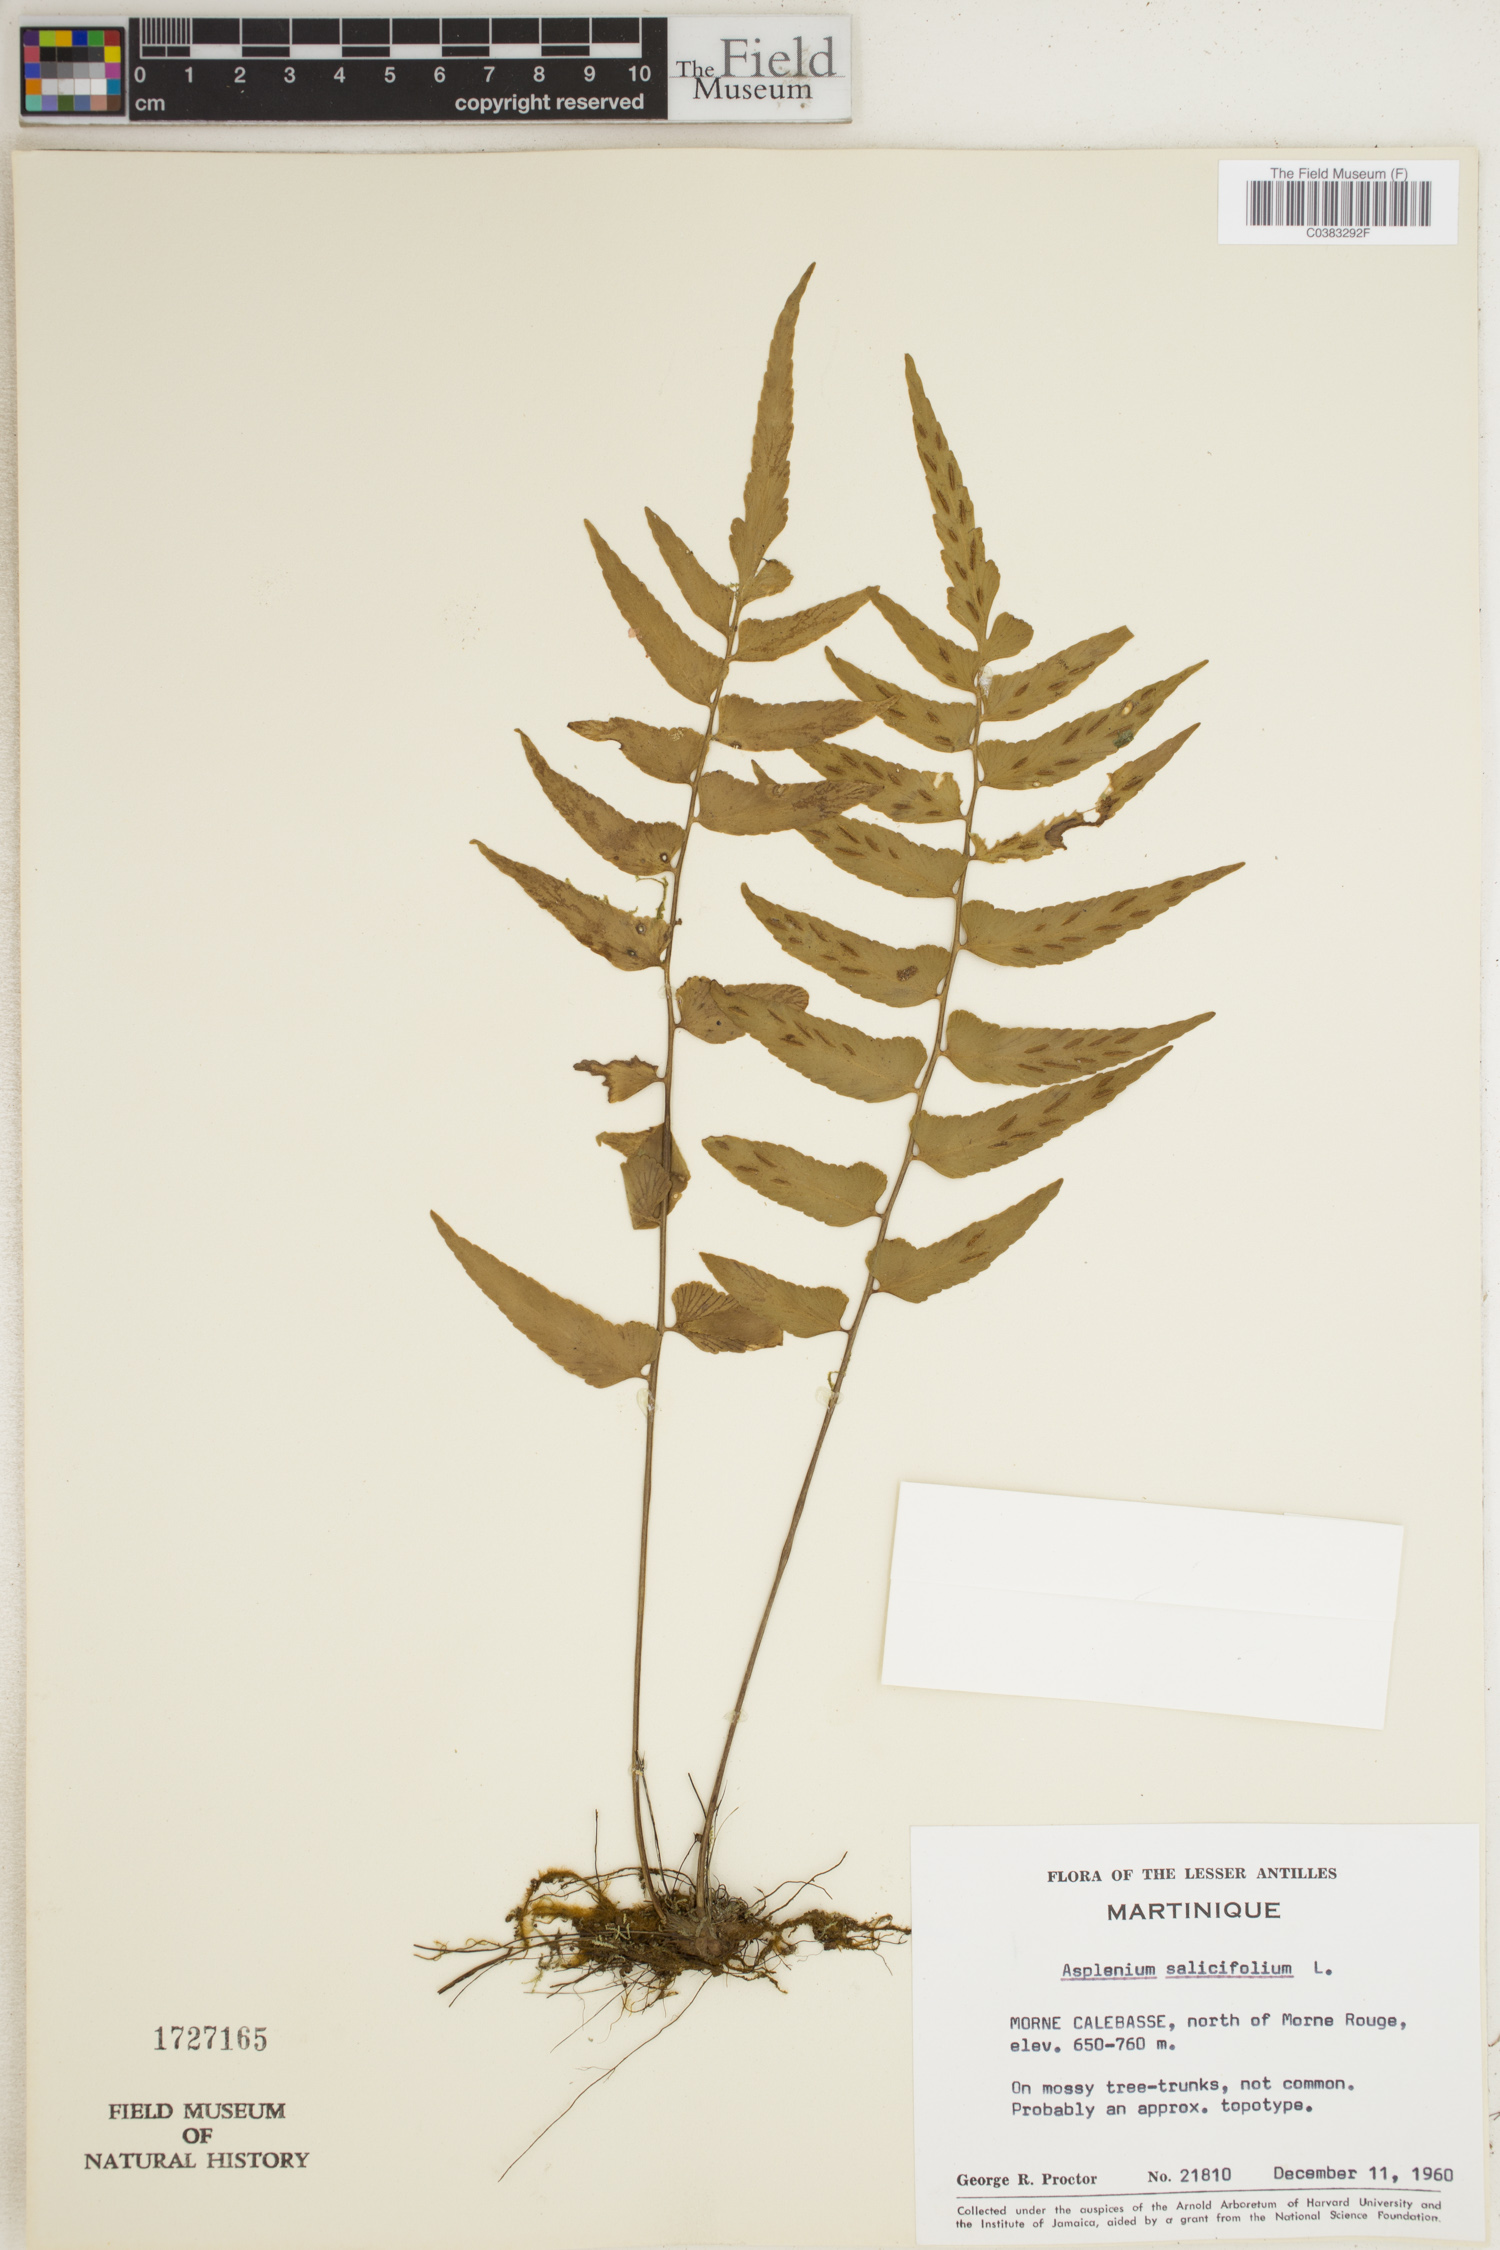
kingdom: Plantae
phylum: Tracheophyta
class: Polypodiopsida
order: Polypodiales
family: Aspleniaceae
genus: Asplenium
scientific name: Asplenium salicifolium
